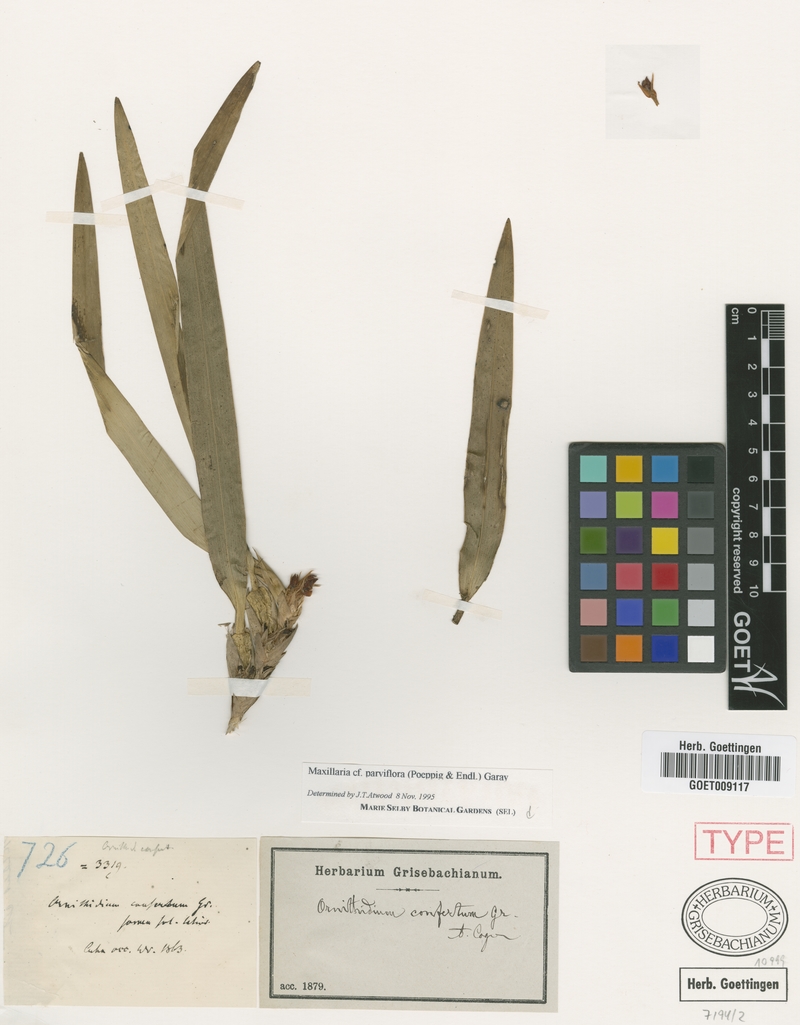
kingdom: Plantae
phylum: Tracheophyta
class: Liliopsida
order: Asparagales
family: Orchidaceae
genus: Maxillaria
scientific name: Maxillaria parviflora
